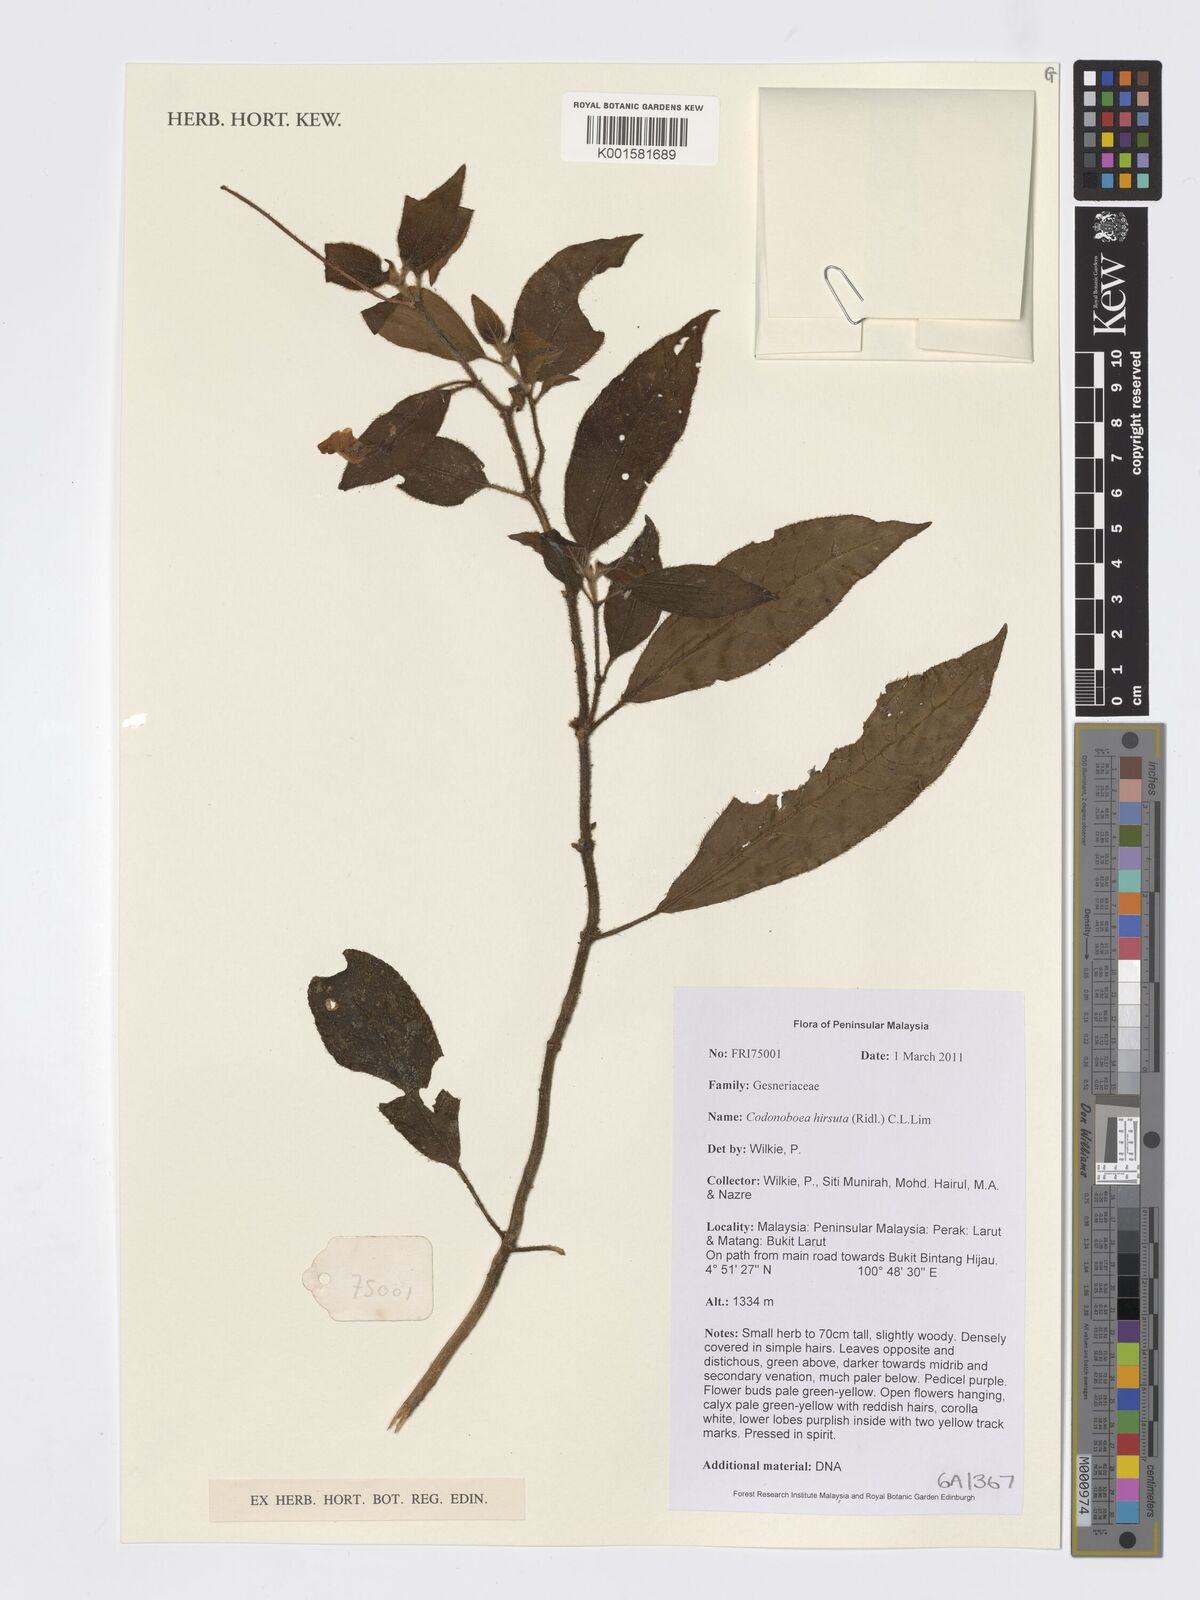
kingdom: Plantae
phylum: Tracheophyta
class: Magnoliopsida
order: Lamiales
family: Gesneriaceae
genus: Codonoboea
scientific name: Codonoboea hirsuta
